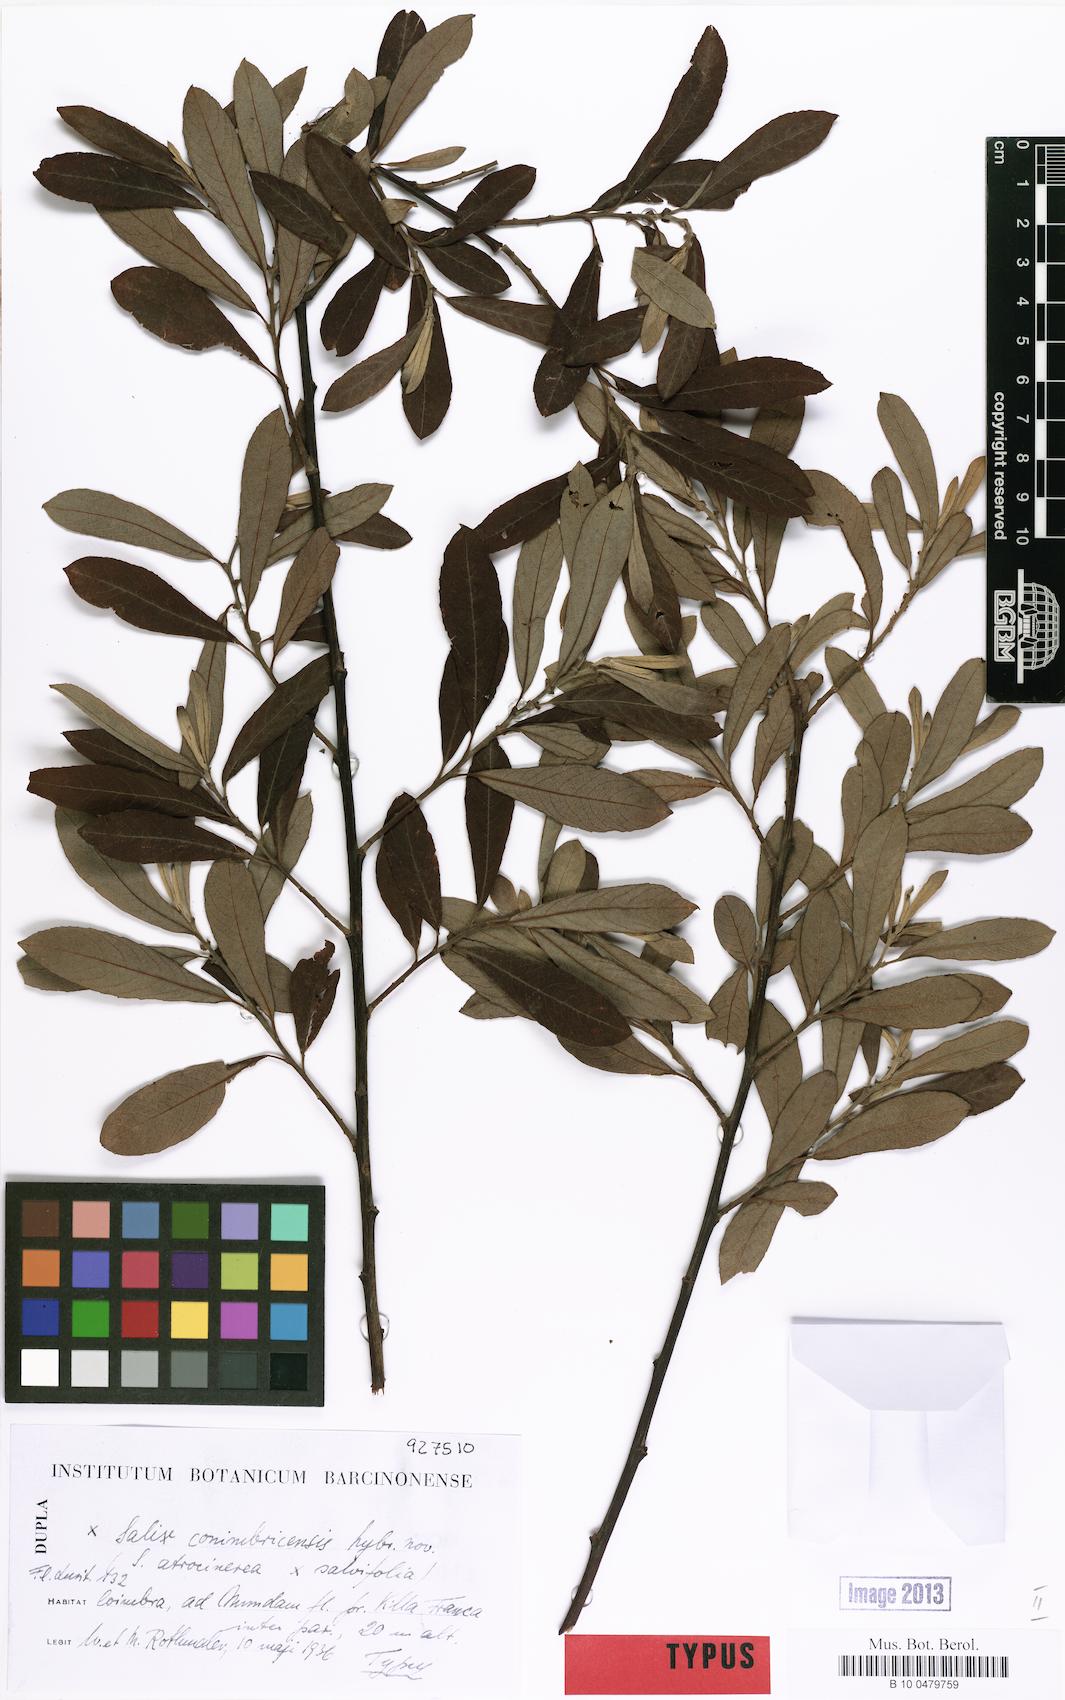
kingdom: Plantae
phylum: Tracheophyta
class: Magnoliopsida
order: Malpighiales
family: Salicaceae
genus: Salix
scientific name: Salix
